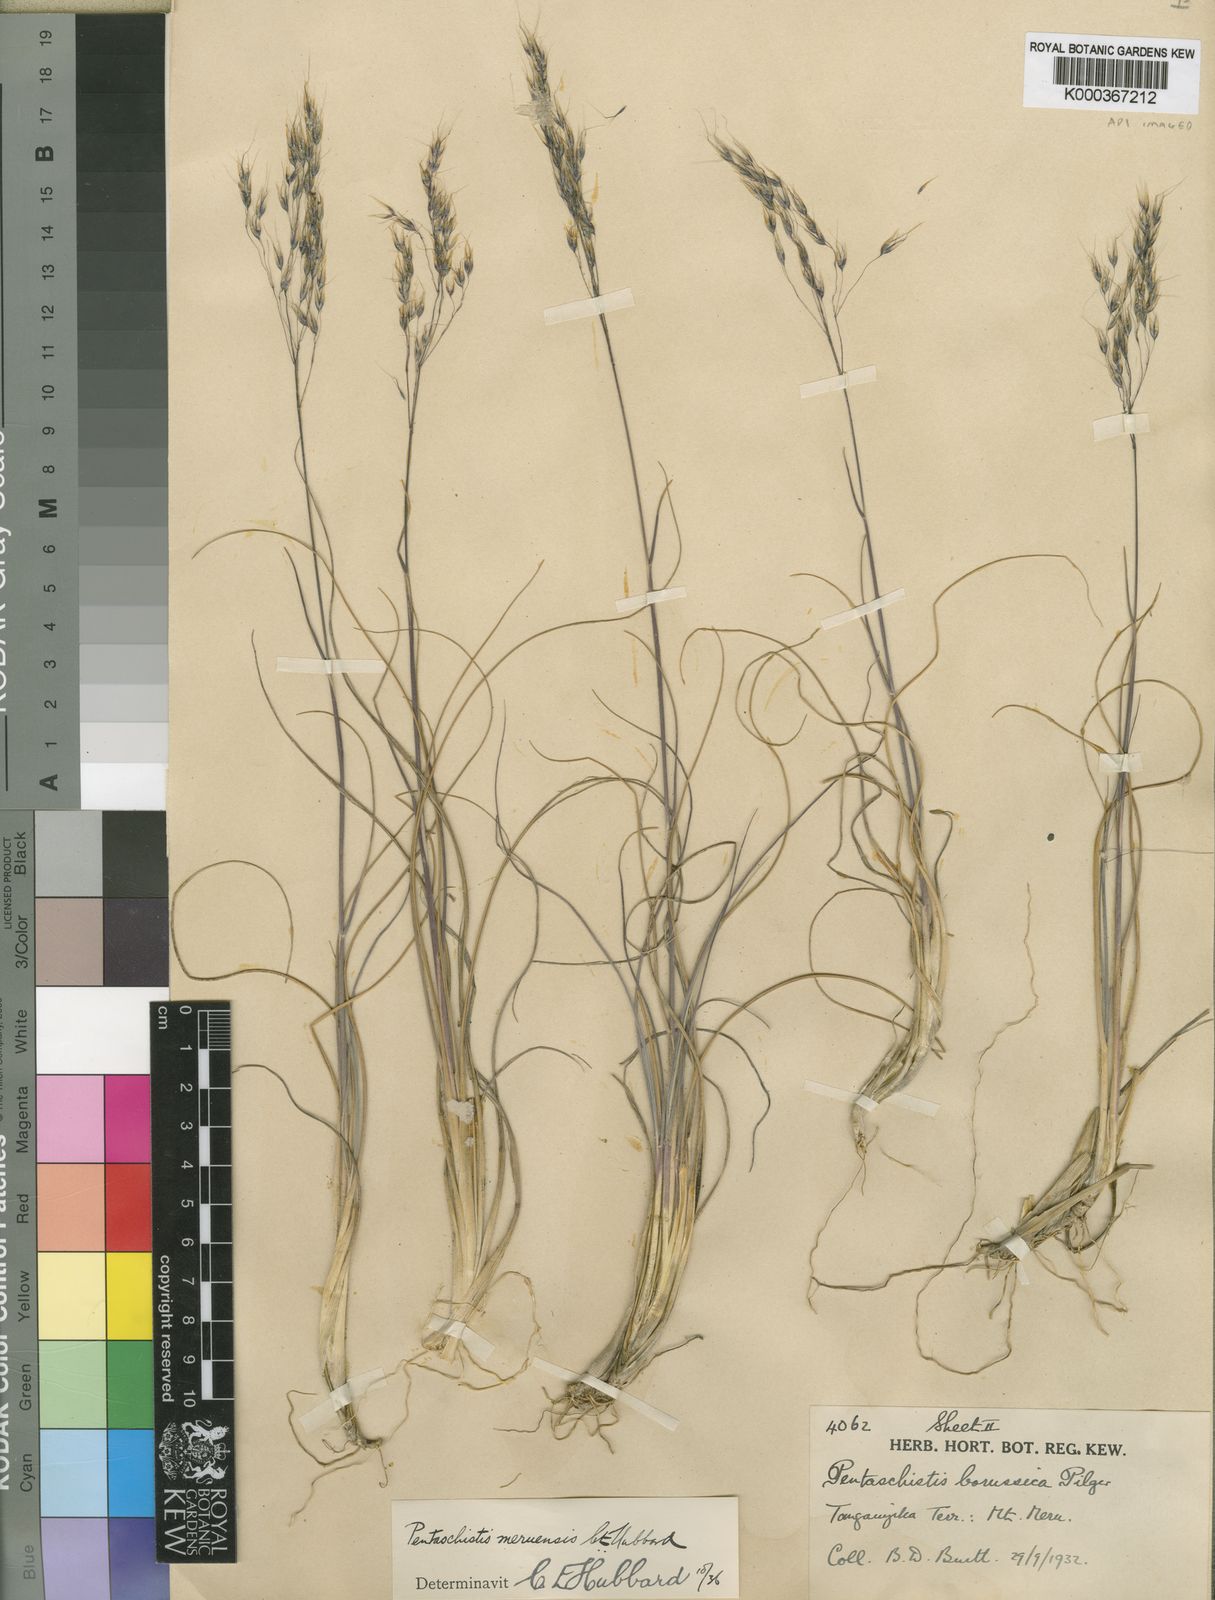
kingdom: Plantae
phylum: Tracheophyta
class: Liliopsida
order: Poales
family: Poaceae
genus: Pentameris
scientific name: Pentameris borussica
